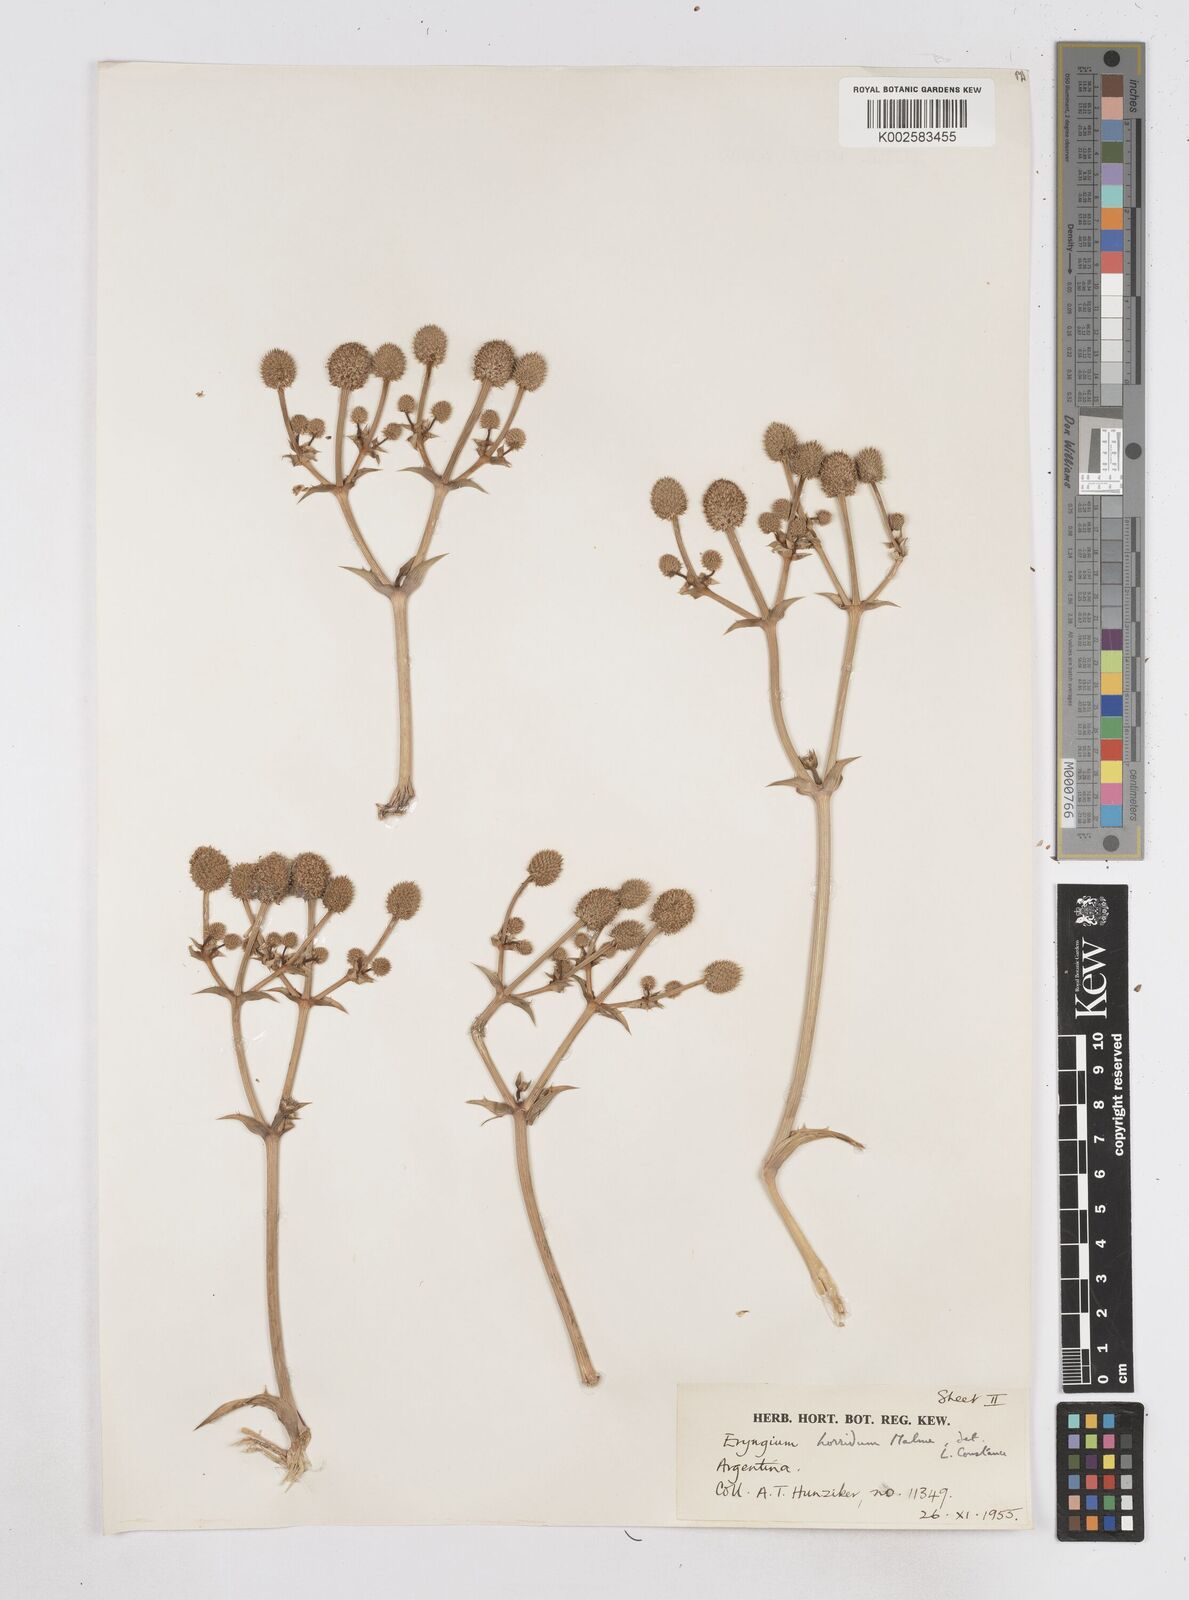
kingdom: Plantae
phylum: Tracheophyta
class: Magnoliopsida
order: Apiales
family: Apiaceae
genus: Eryngium
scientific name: Eryngium horridum
